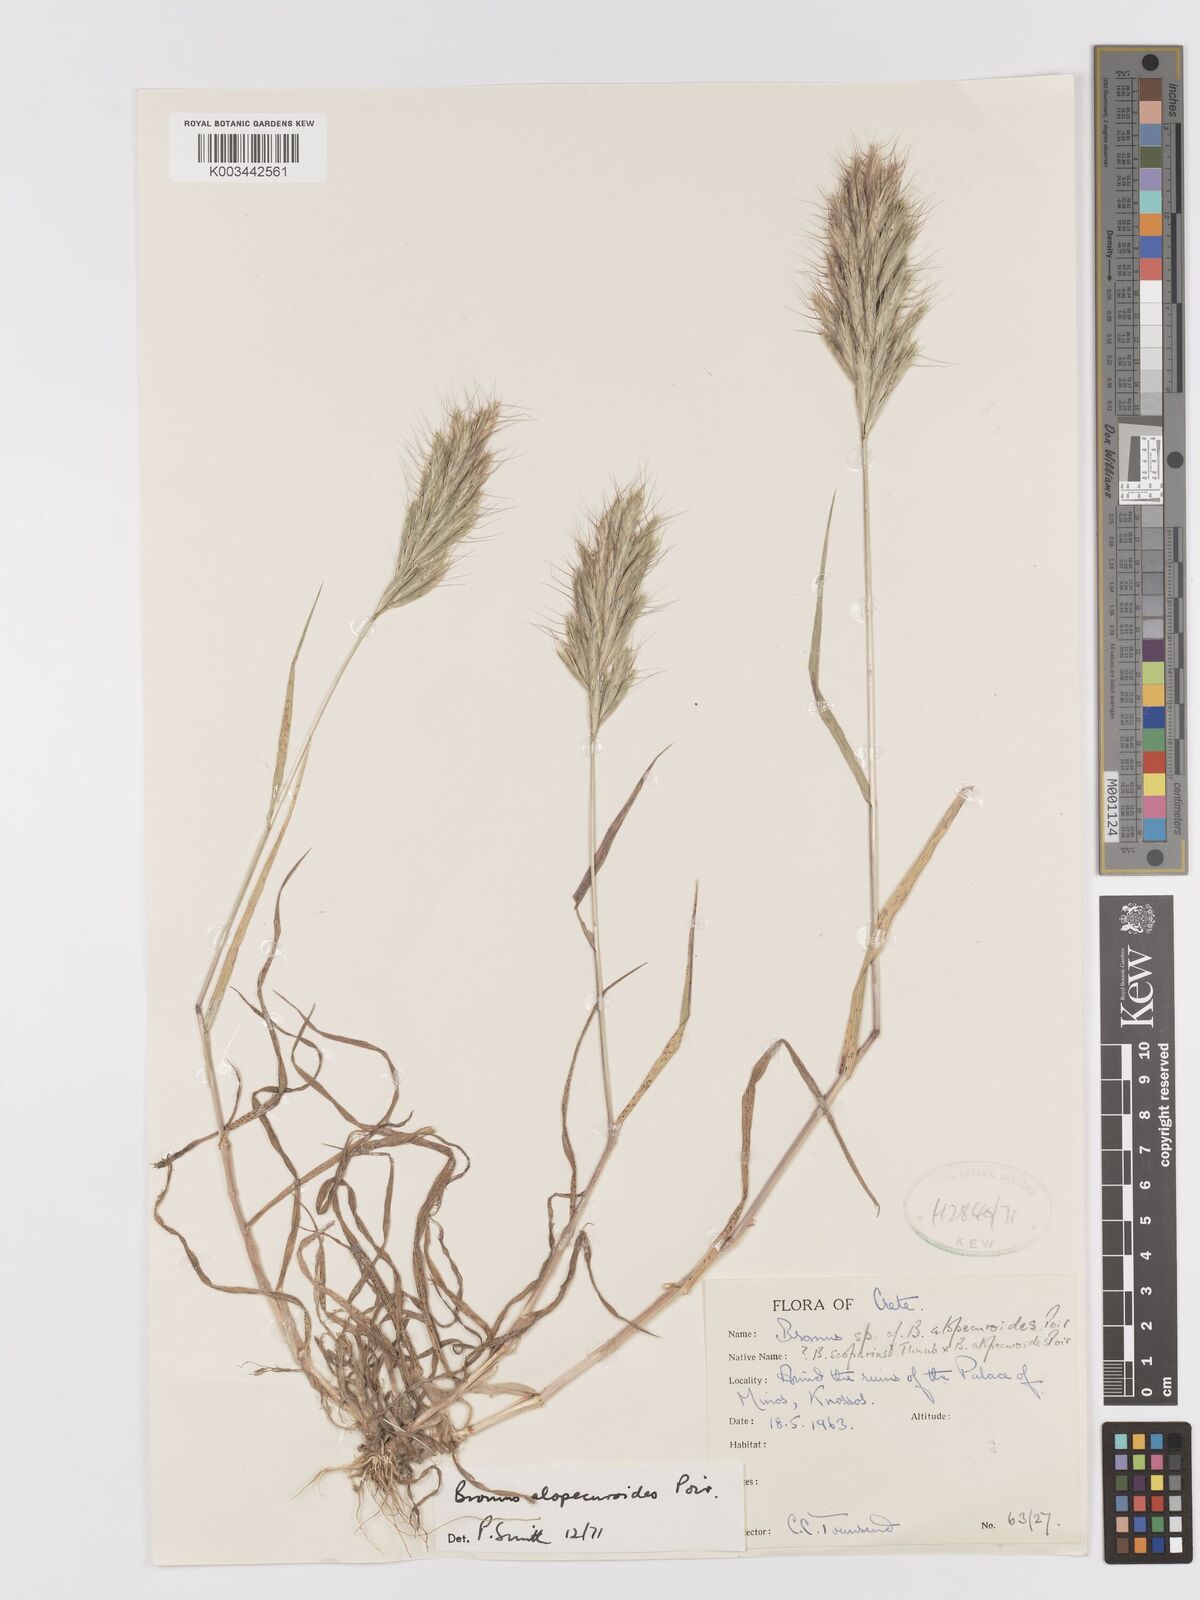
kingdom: Plantae
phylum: Tracheophyta
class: Liliopsida
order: Poales
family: Poaceae
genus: Bromus
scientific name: Bromus alopecuros
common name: Weedy brome
